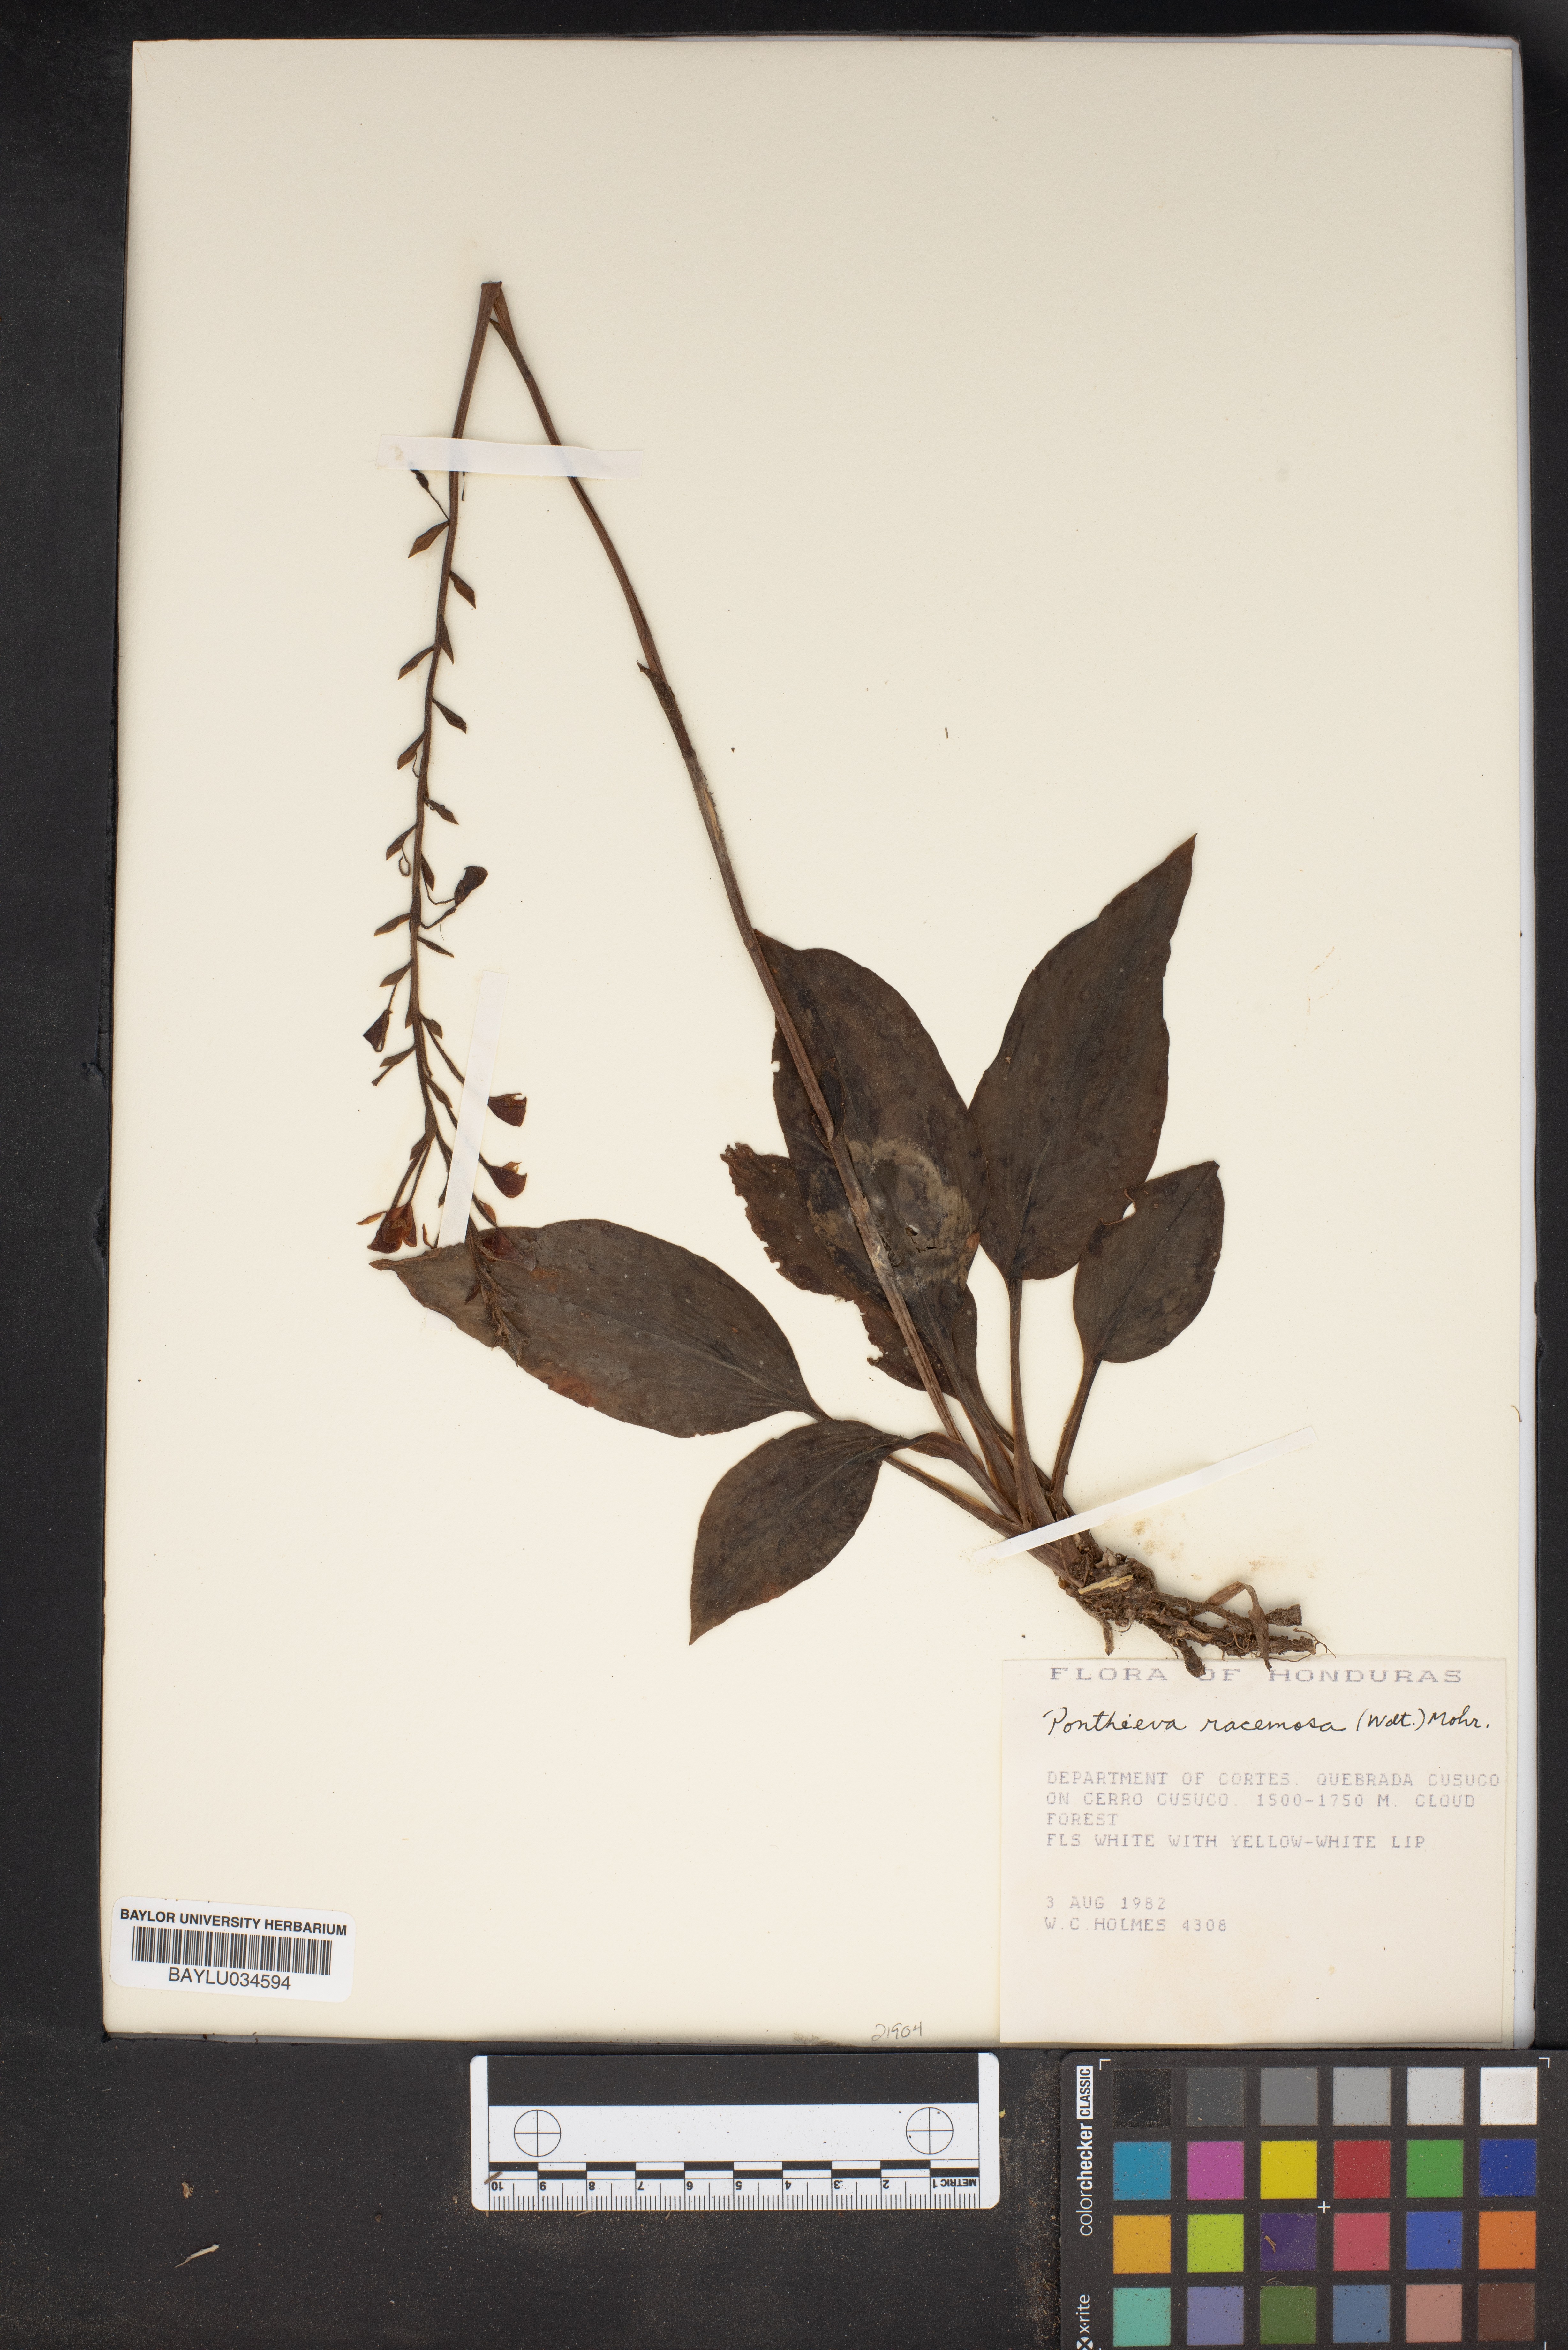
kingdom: Plantae
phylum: Tracheophyta
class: Liliopsida
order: Asparagales
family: Orchidaceae
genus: Ponthieva
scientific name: Ponthieva racemosa
